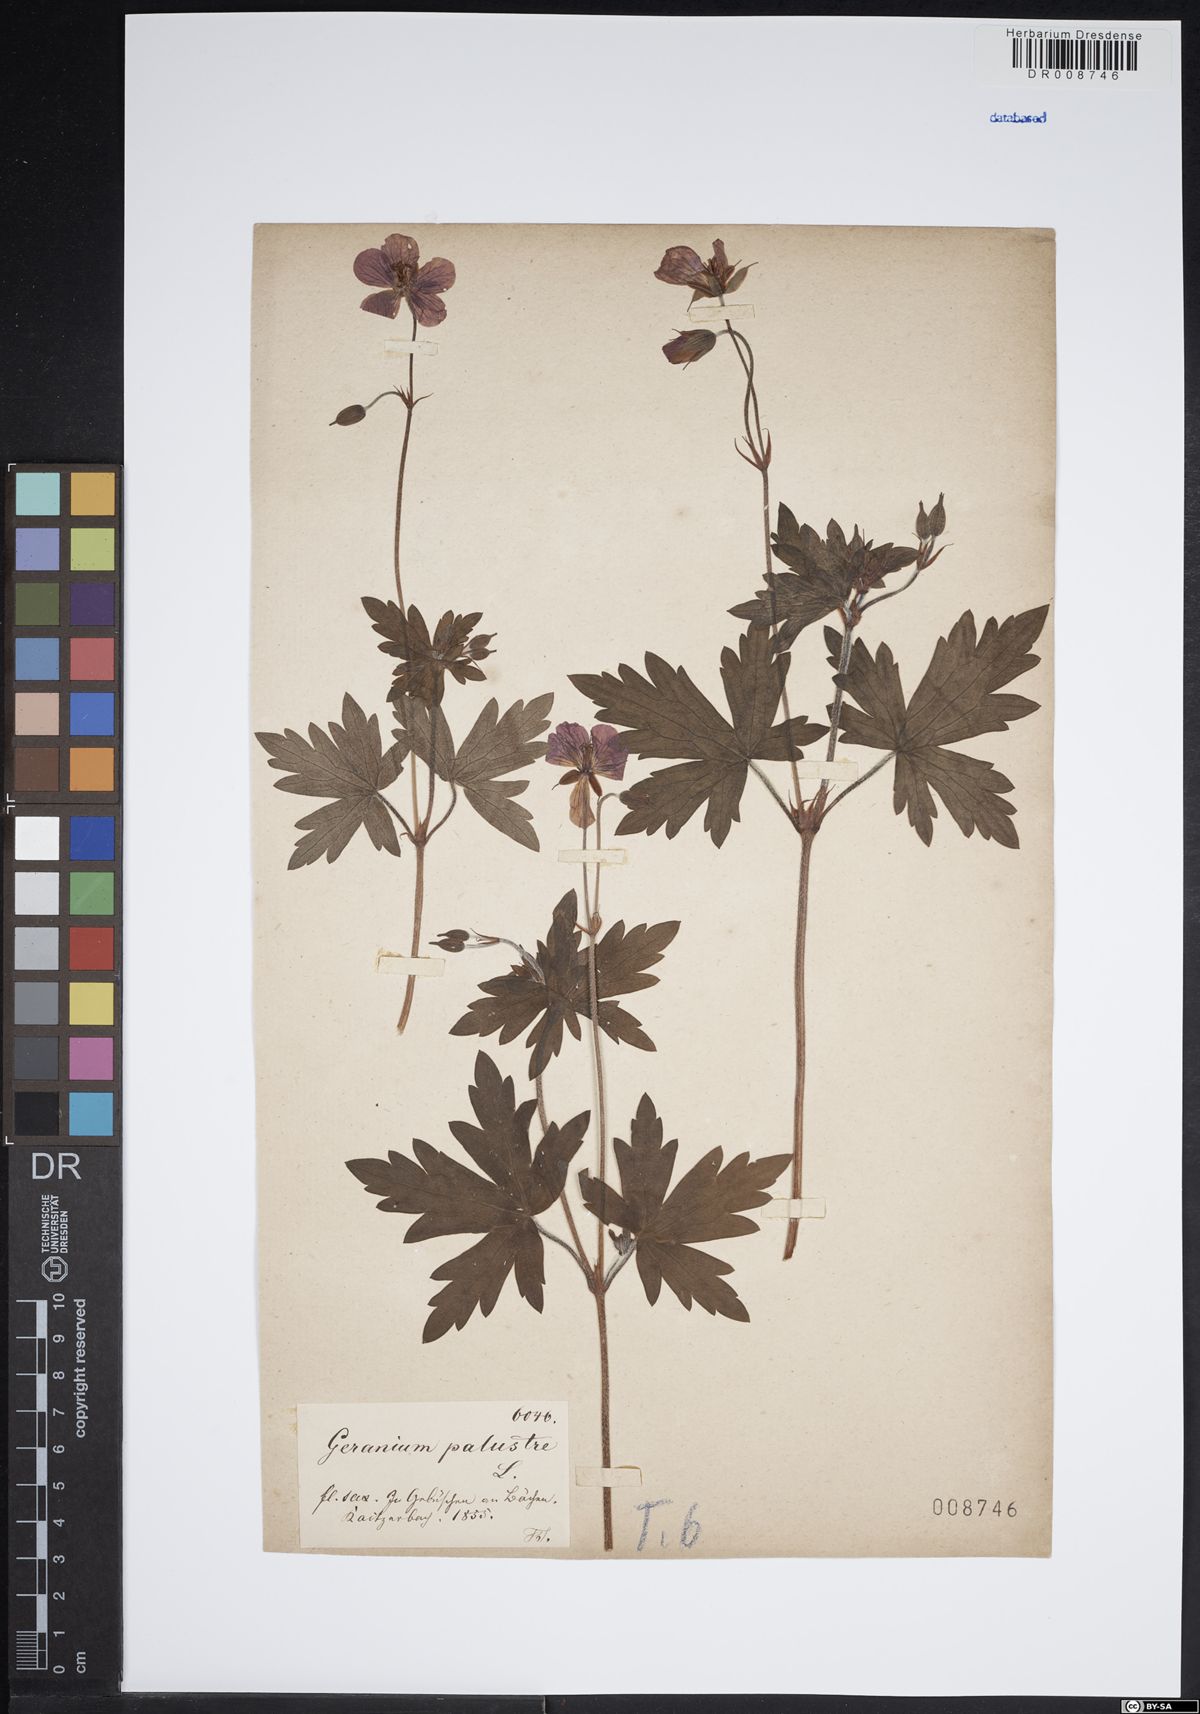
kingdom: Plantae
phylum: Tracheophyta
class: Magnoliopsida
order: Geraniales
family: Geraniaceae
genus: Geranium
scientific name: Geranium palustre
